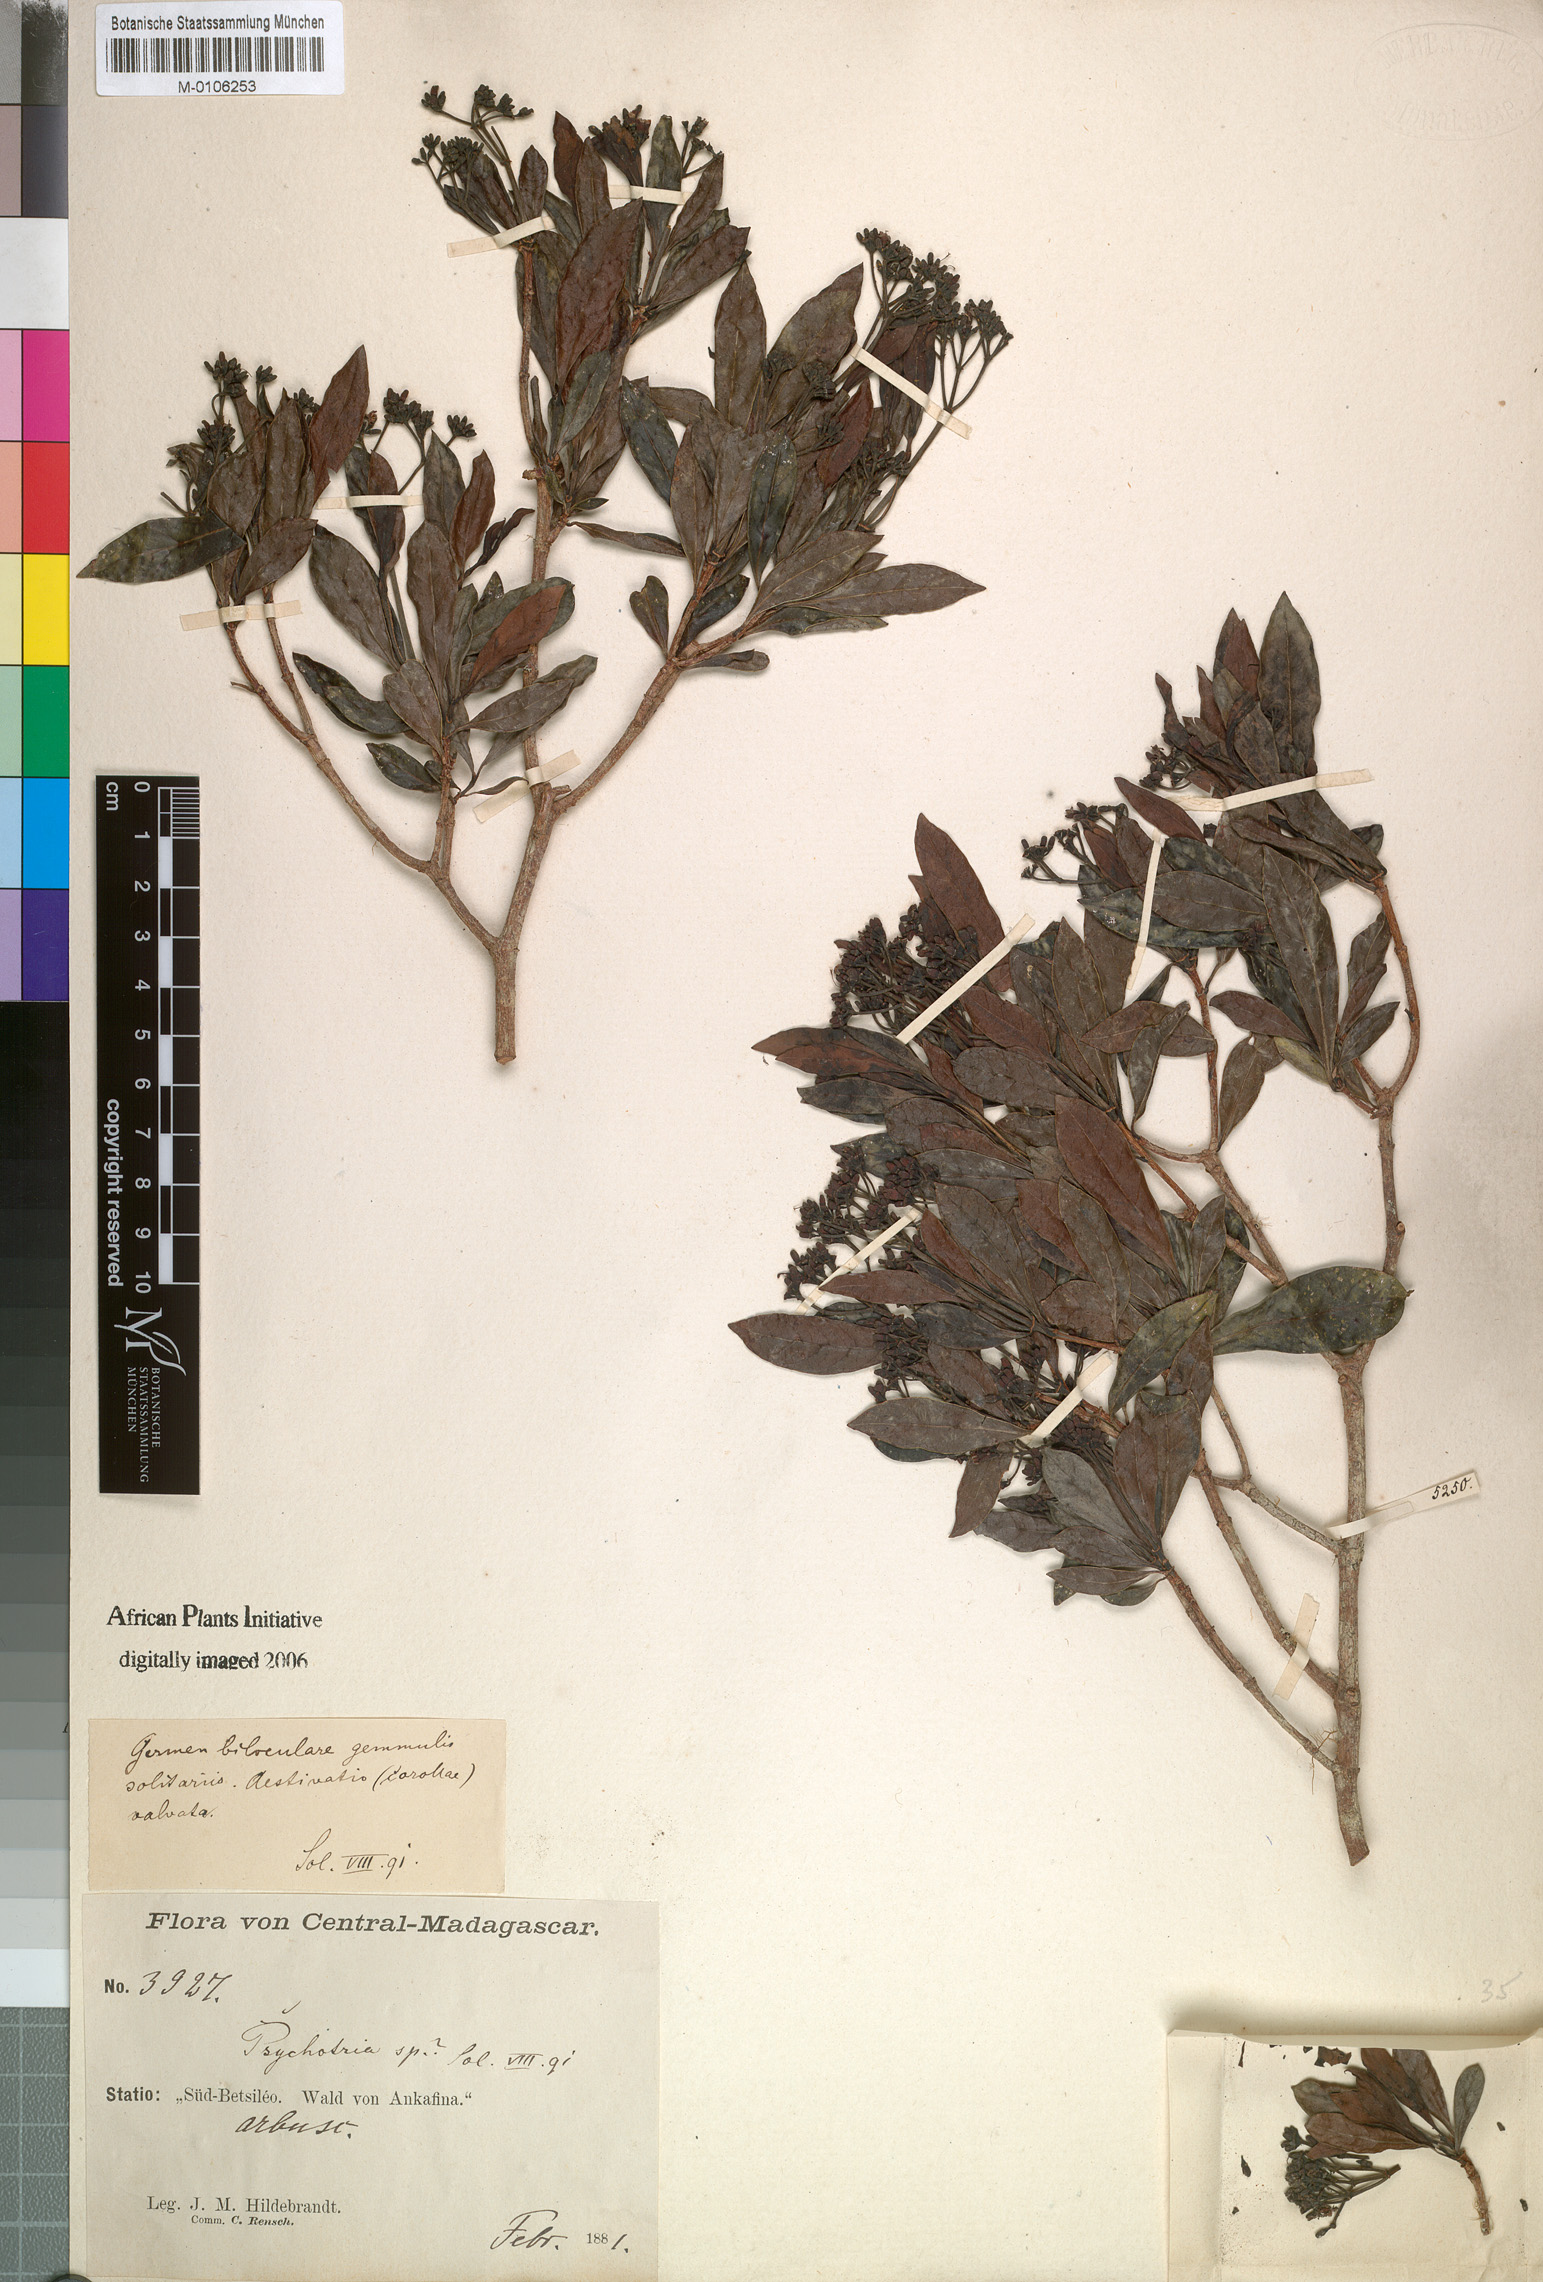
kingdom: Plantae
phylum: Tracheophyta
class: Magnoliopsida
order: Gentianales
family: Rubiaceae
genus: Psychotria
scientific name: Psychotria retiphlebia
